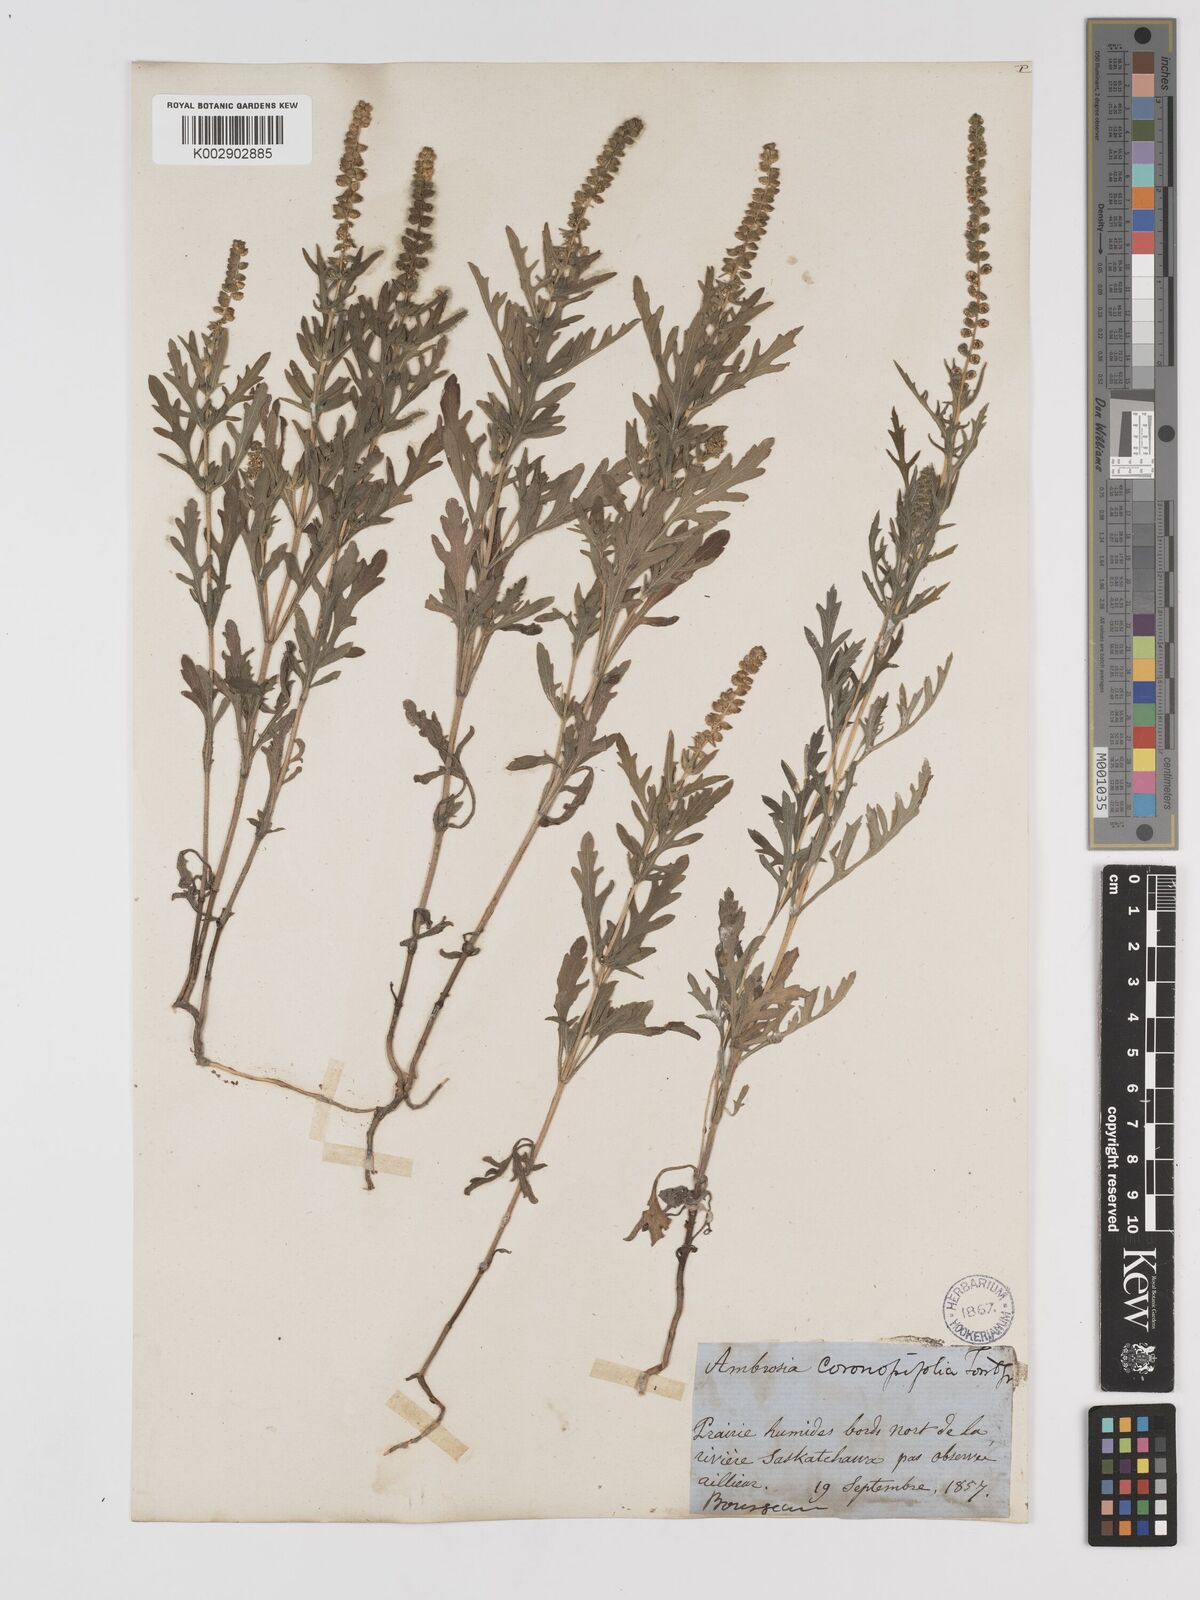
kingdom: Plantae
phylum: Tracheophyta
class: Magnoliopsida
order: Asterales
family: Asteraceae
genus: Ambrosia
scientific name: Ambrosia psilostachya
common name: Perennial ragweed
